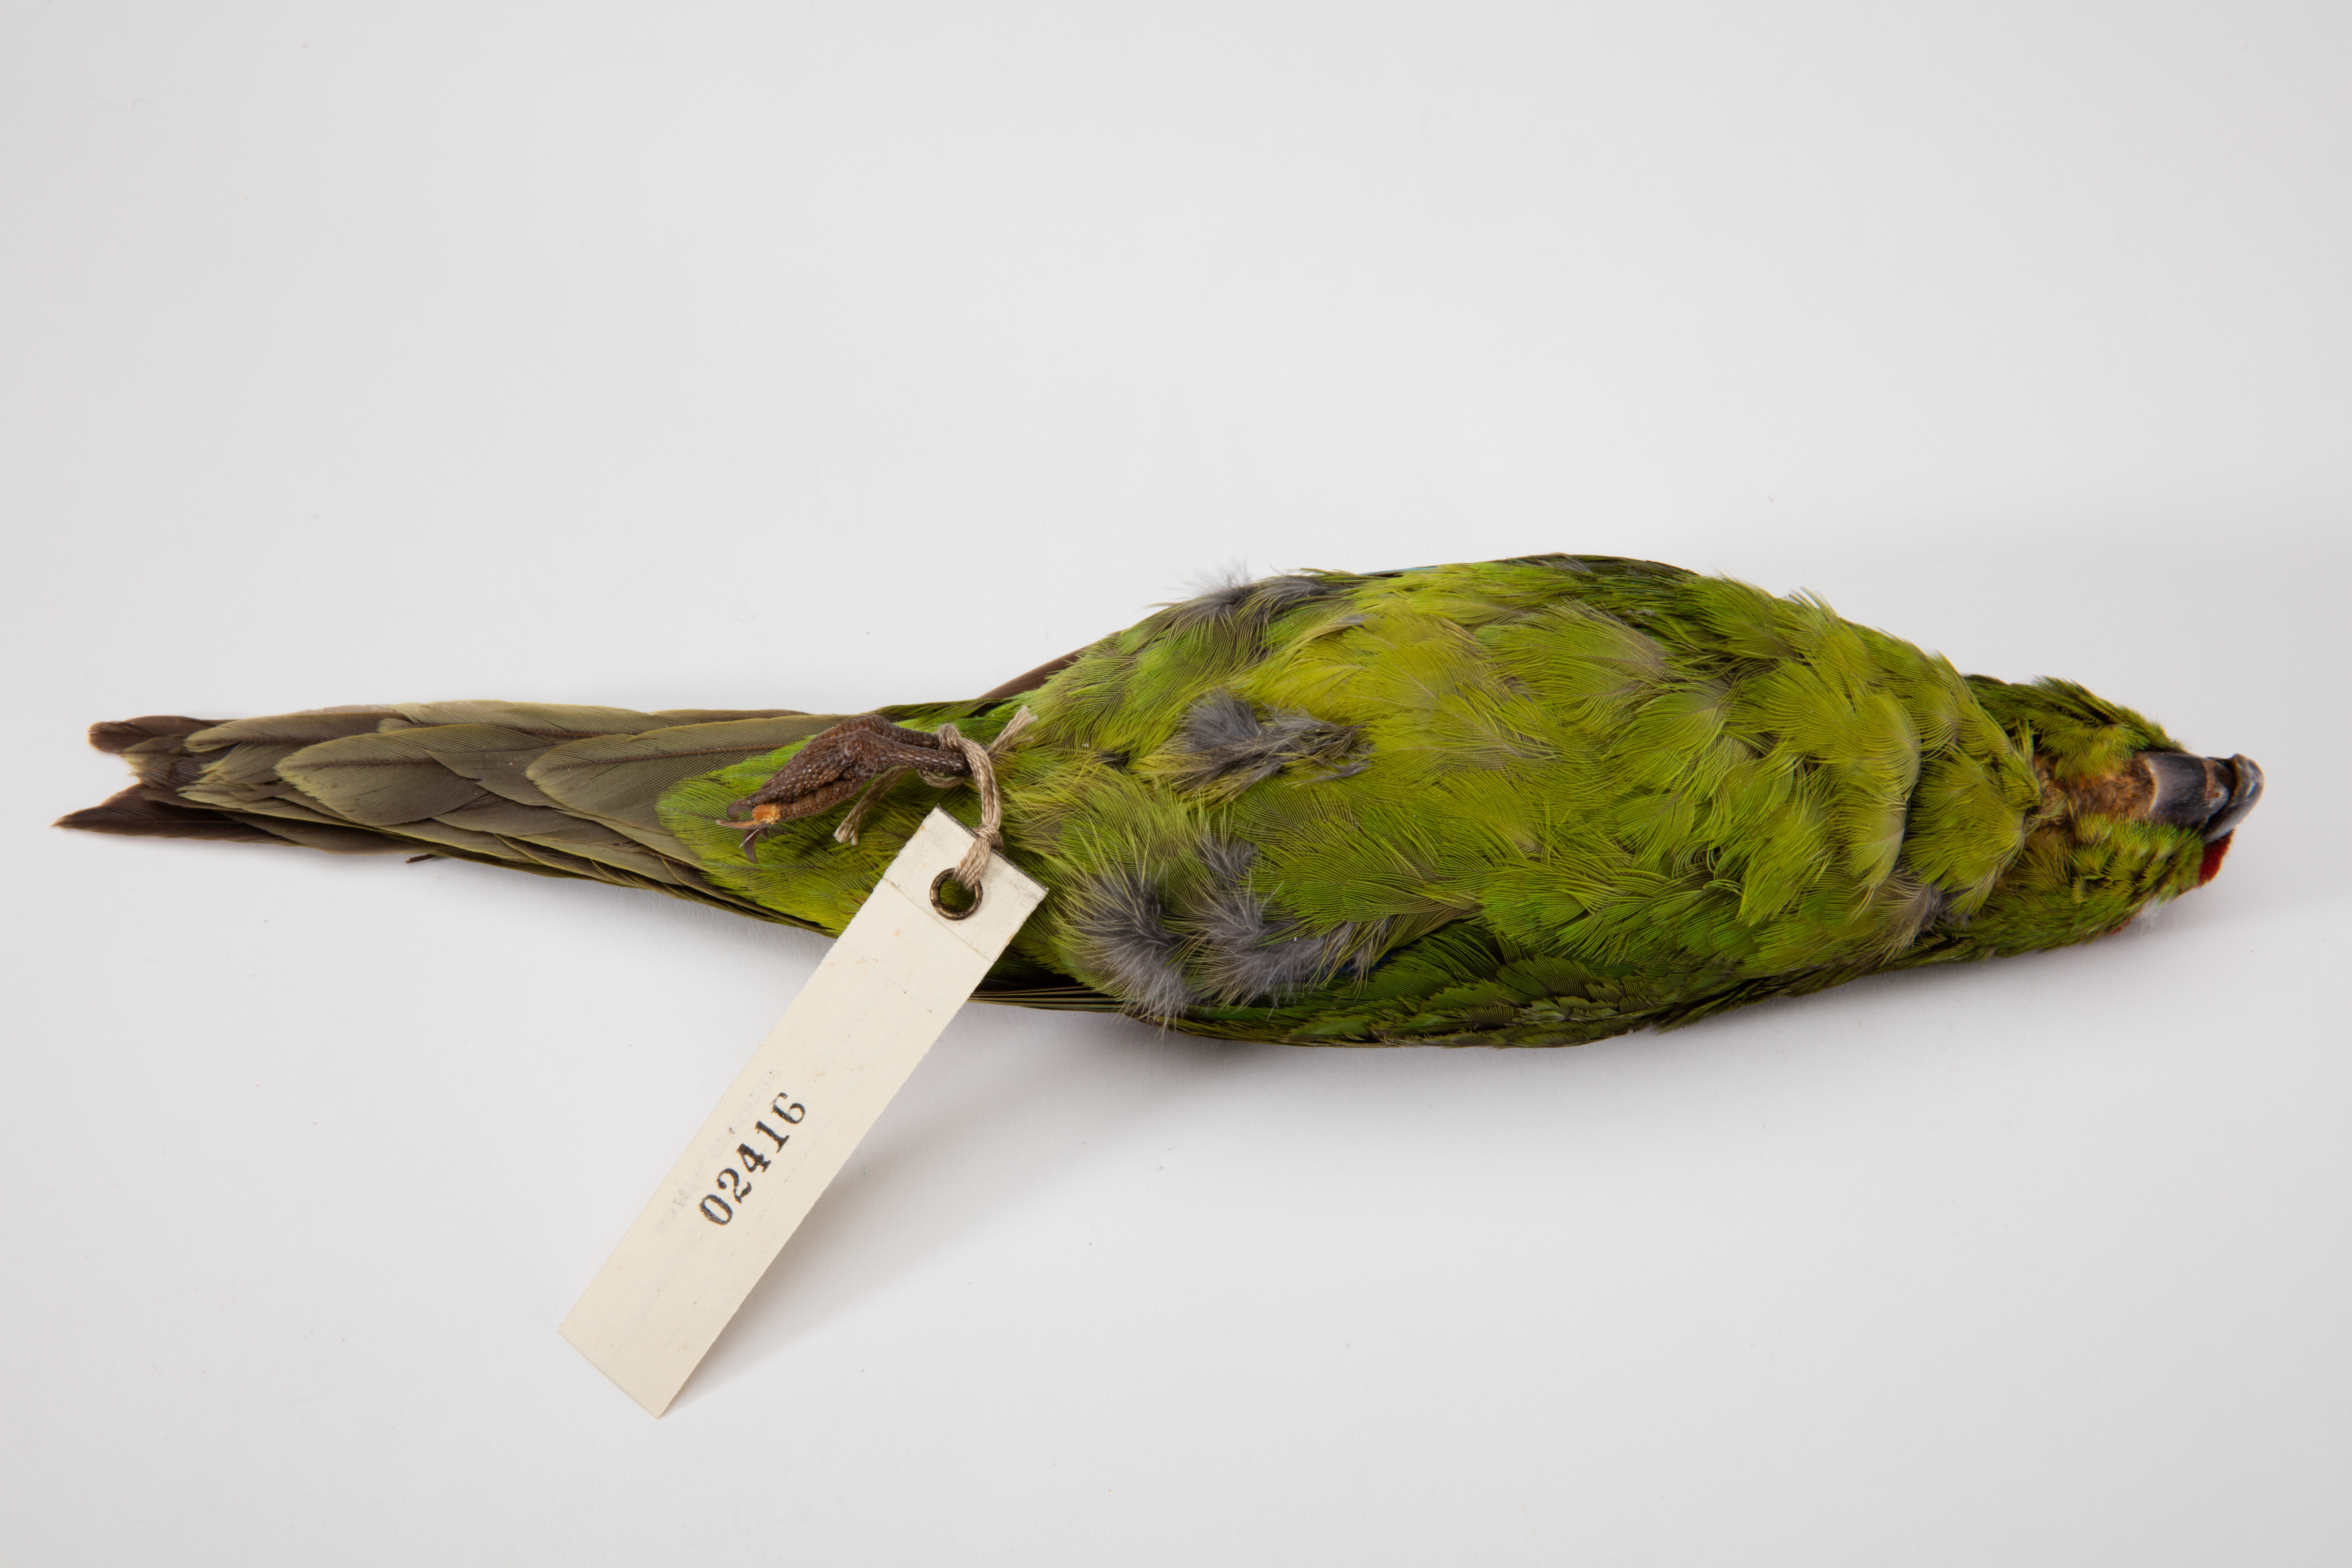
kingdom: Animalia
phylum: Chordata
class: Aves
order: Psittaciformes
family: Psittacidae
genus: Cyanoramphus
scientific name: Cyanoramphus novaezelandiae
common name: Red-fronted parakeet
